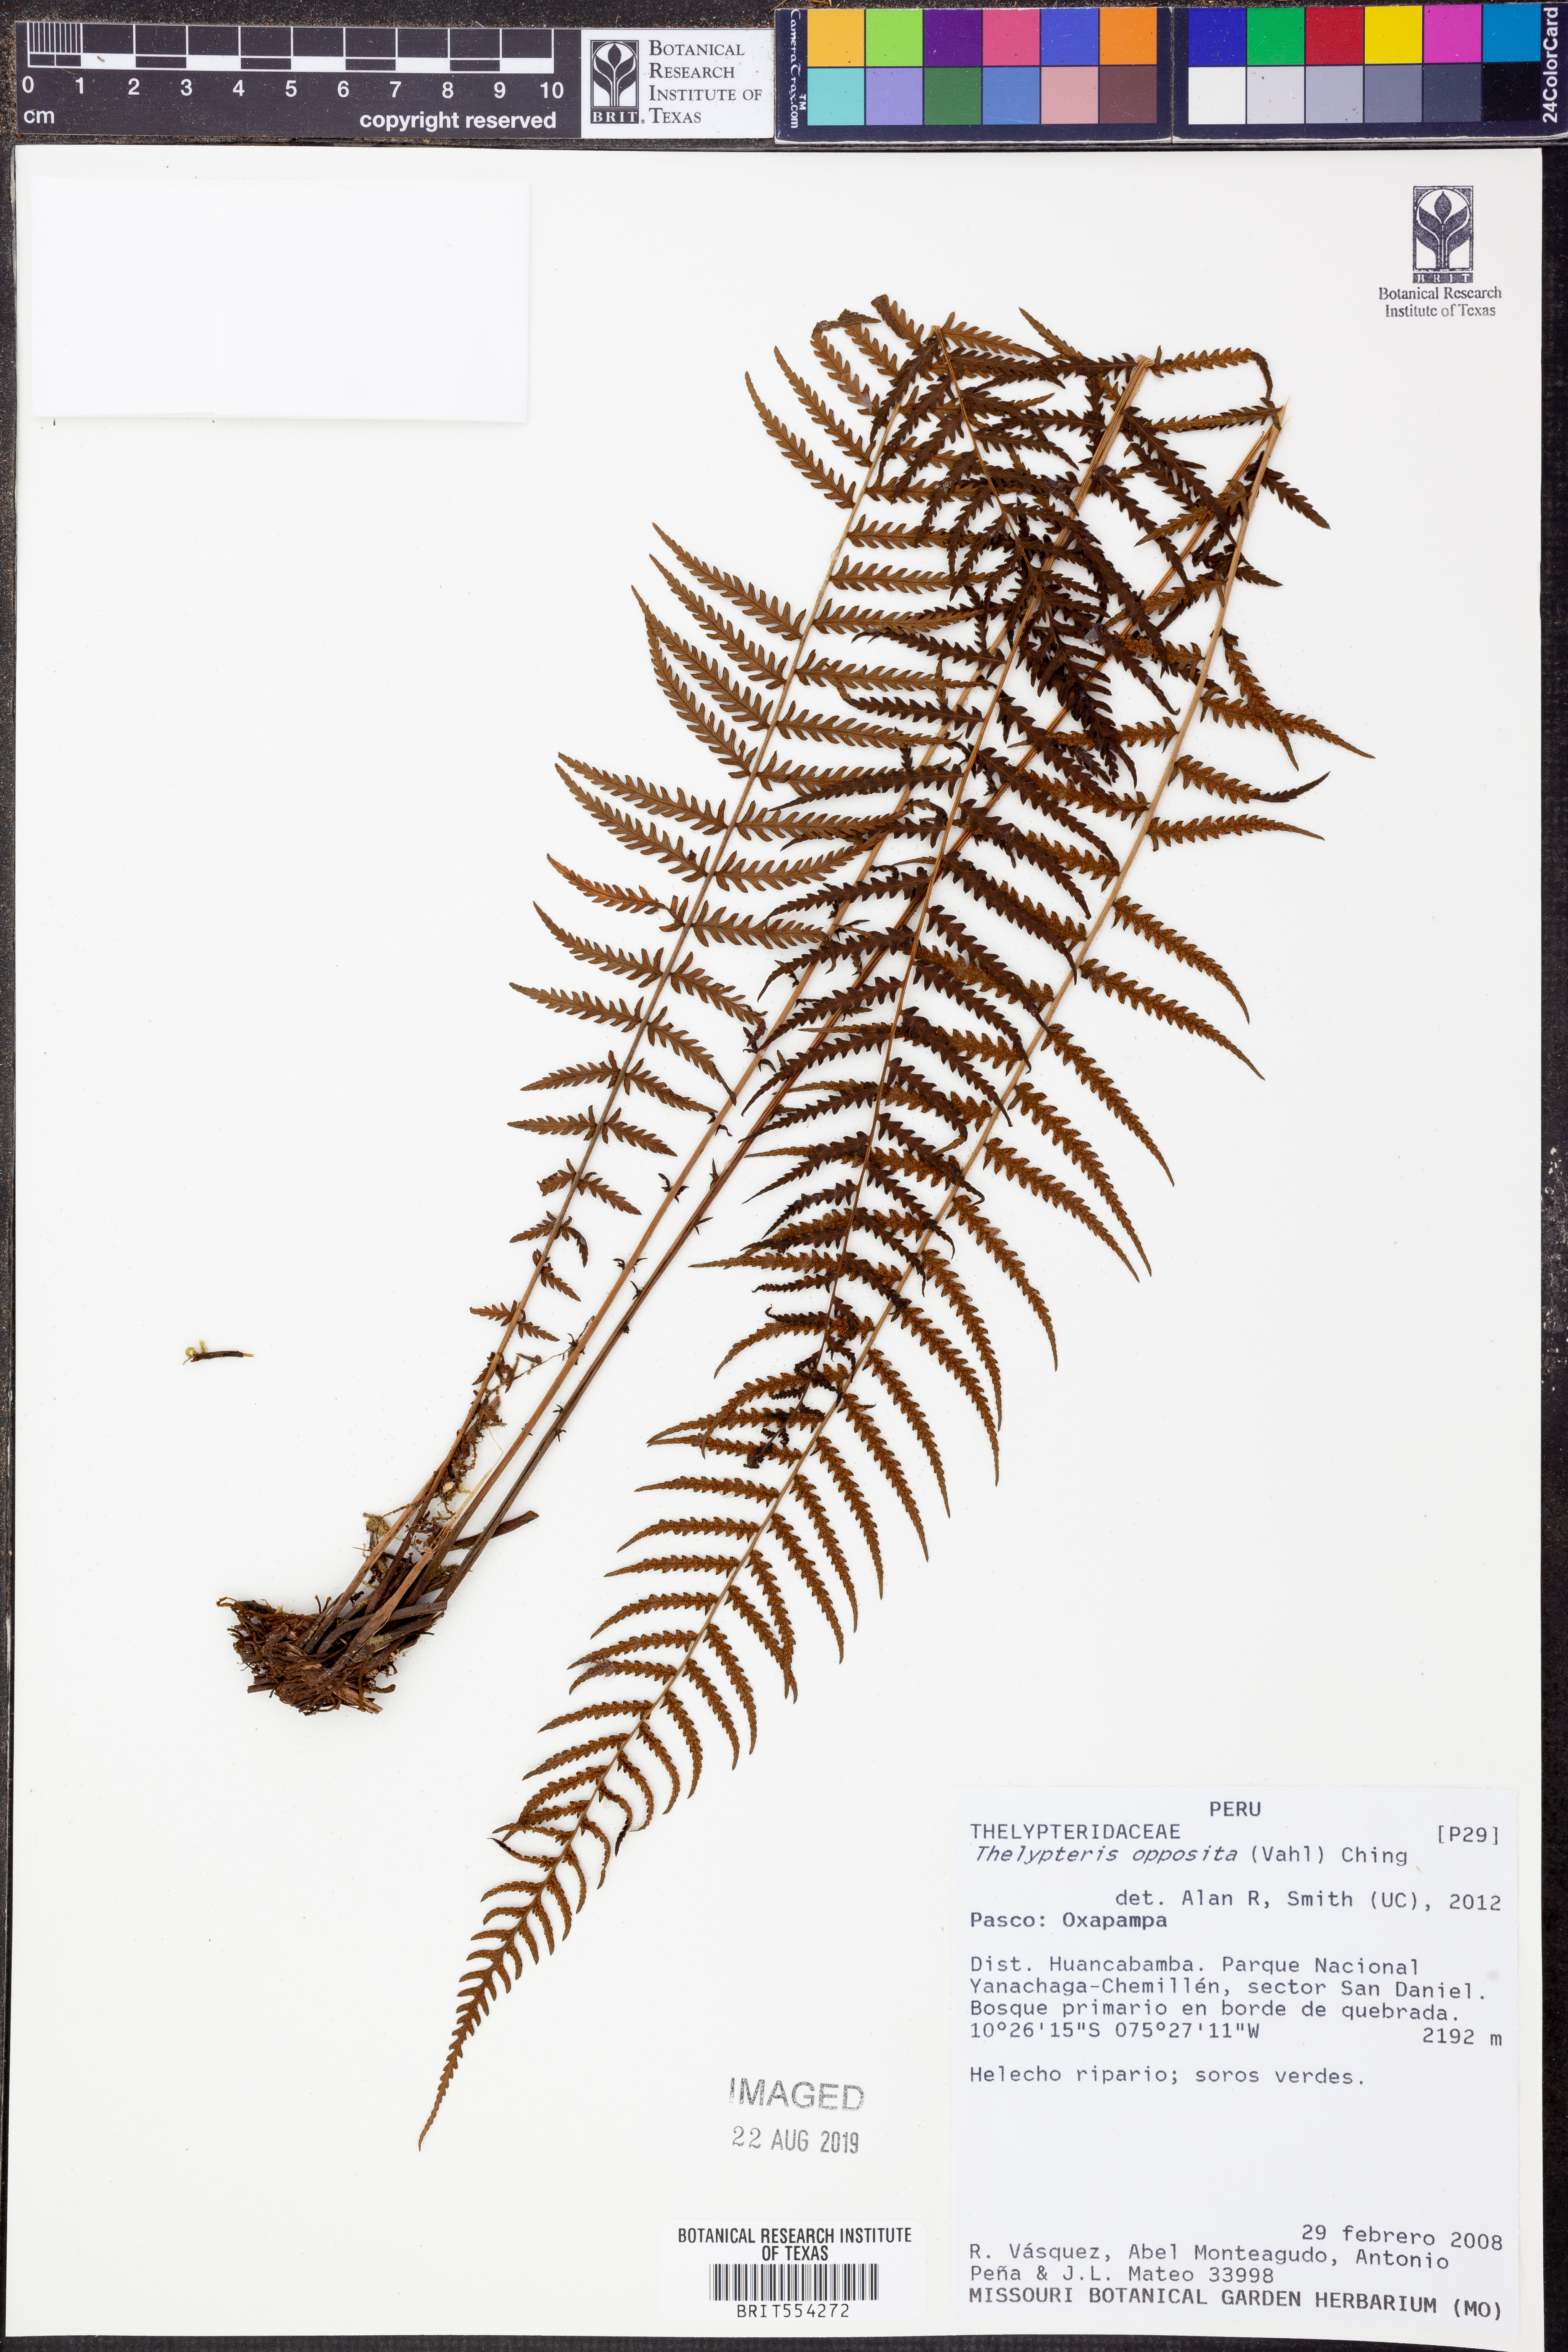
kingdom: Plantae
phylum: Tracheophyta
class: Polypodiopsida
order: Polypodiales
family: Thelypteridaceae
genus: Amauropelta
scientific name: Amauropelta opposita
